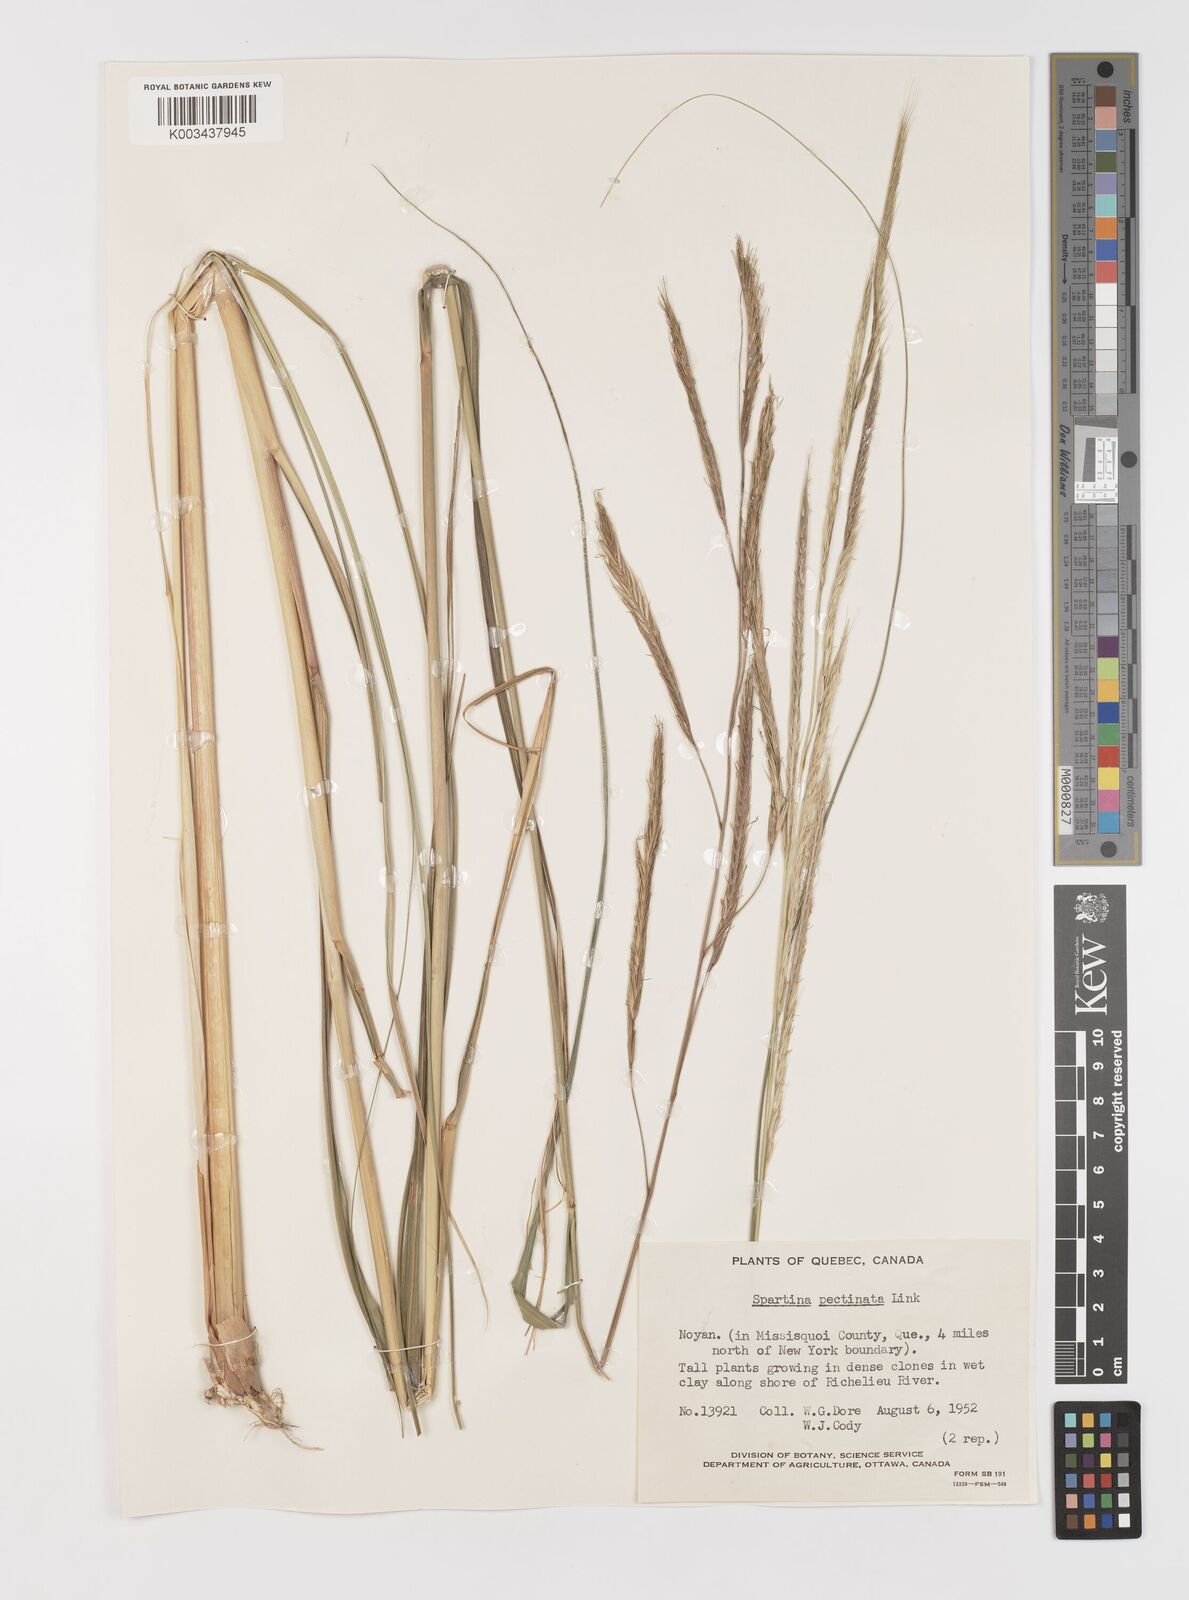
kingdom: Plantae
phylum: Tracheophyta
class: Liliopsida
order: Poales
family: Poaceae
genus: Sporobolus
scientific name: Sporobolus michauxianus
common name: Freshwater cordgrass
